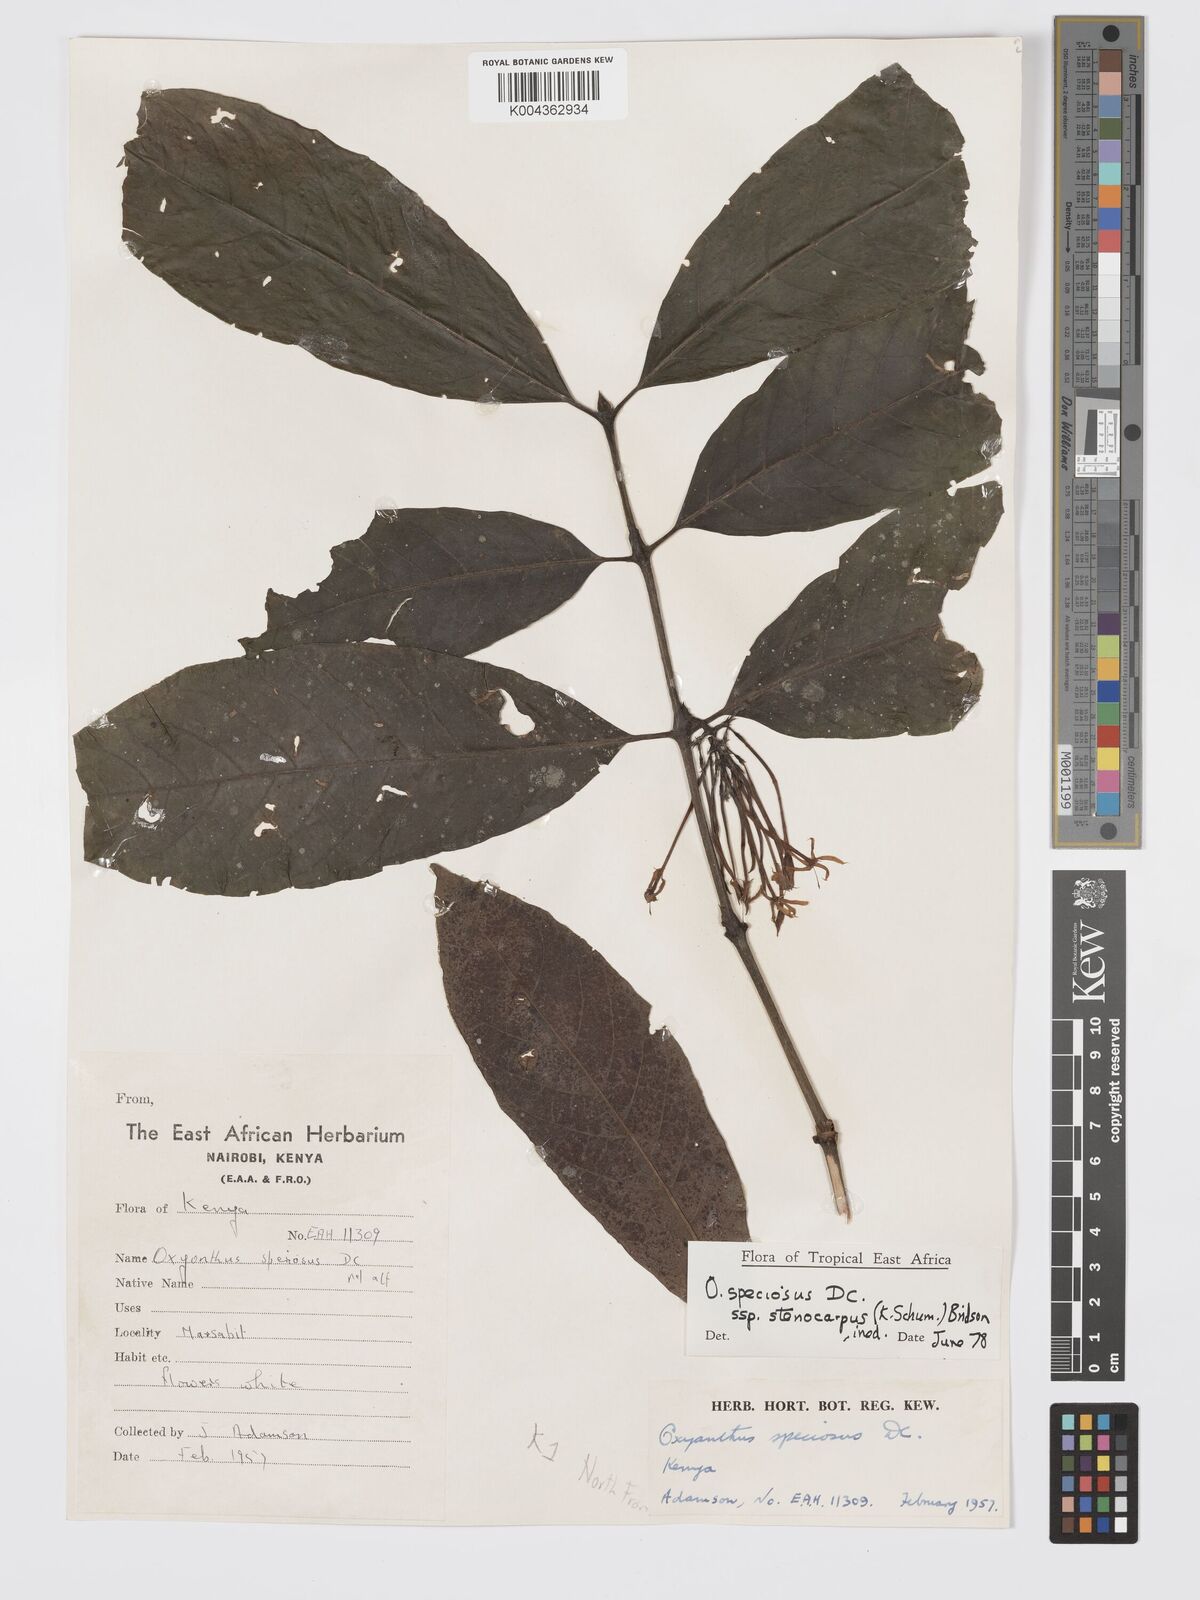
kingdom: Plantae
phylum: Tracheophyta
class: Magnoliopsida
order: Gentianales
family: Rubiaceae
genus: Oxyanthus
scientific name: Oxyanthus speciosus
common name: Whipstick loquat
